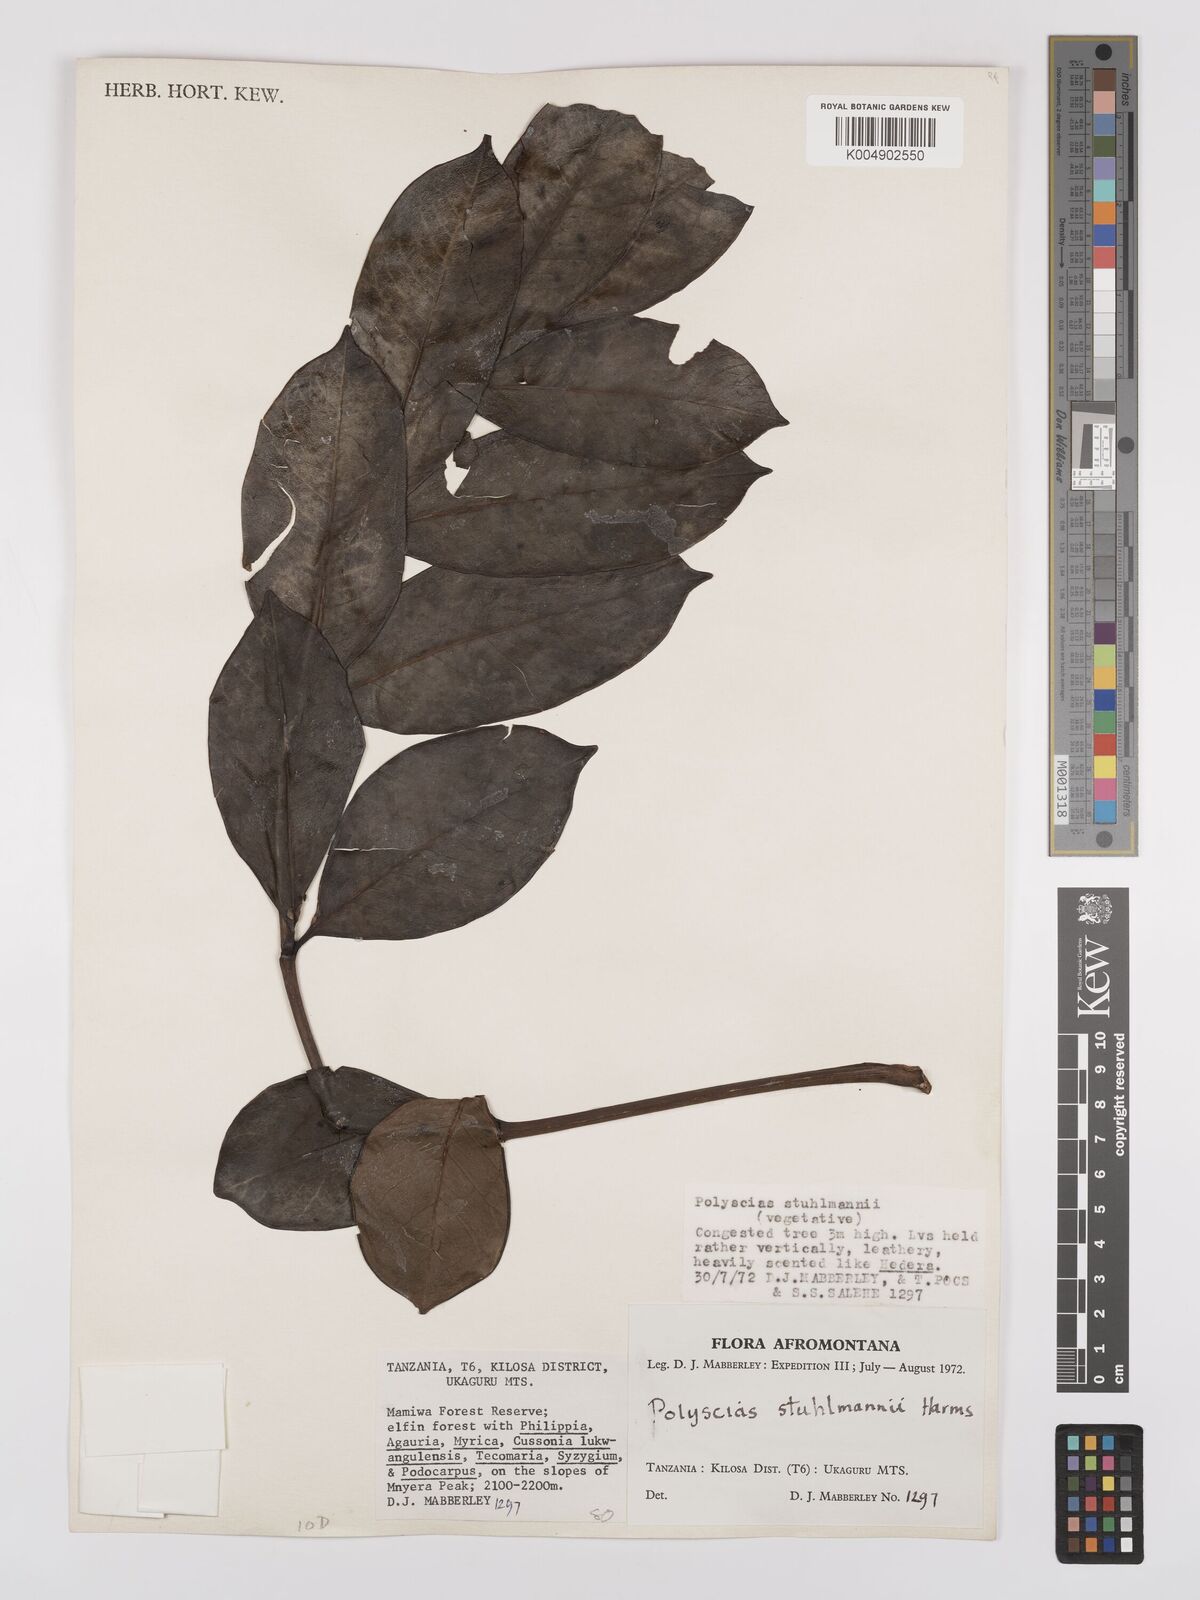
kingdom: Plantae
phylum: Tracheophyta
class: Magnoliopsida
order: Apiales
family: Araliaceae
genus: Polyscias
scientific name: Polyscias stuhlmannii
